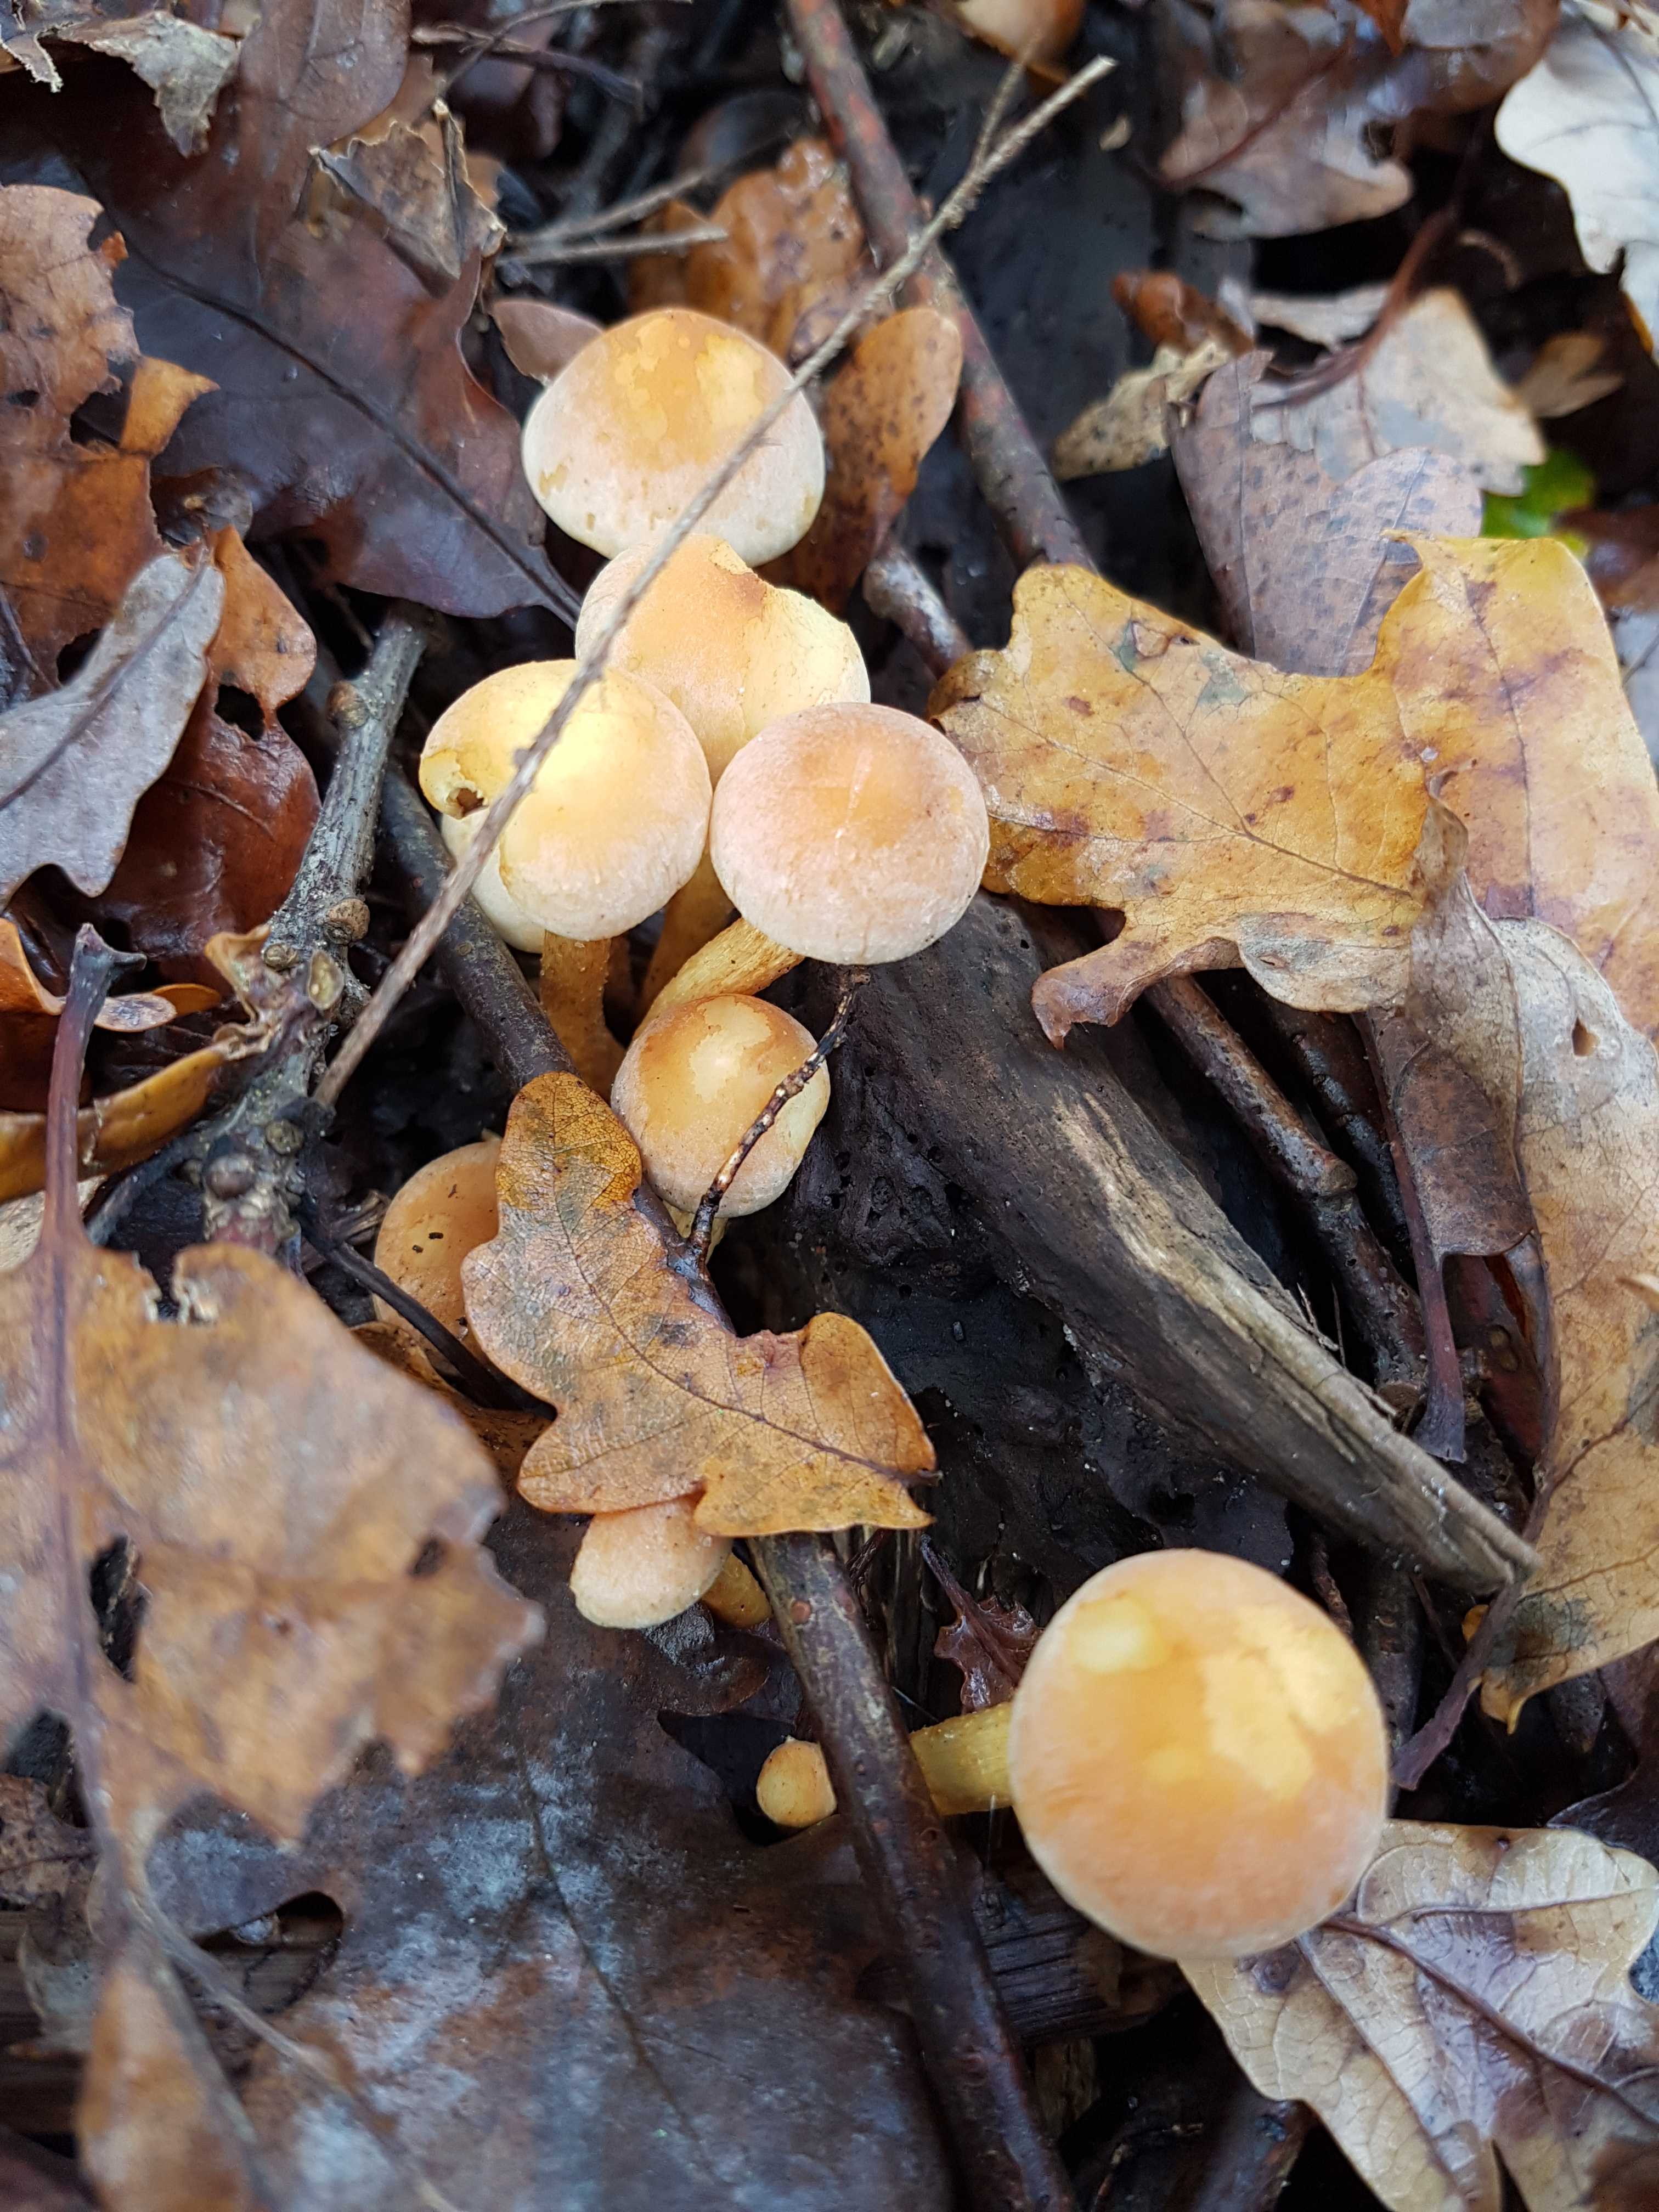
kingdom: Fungi
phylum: Basidiomycota
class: Agaricomycetes
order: Agaricales
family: Strophariaceae
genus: Hypholoma
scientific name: Hypholoma fasciculare
